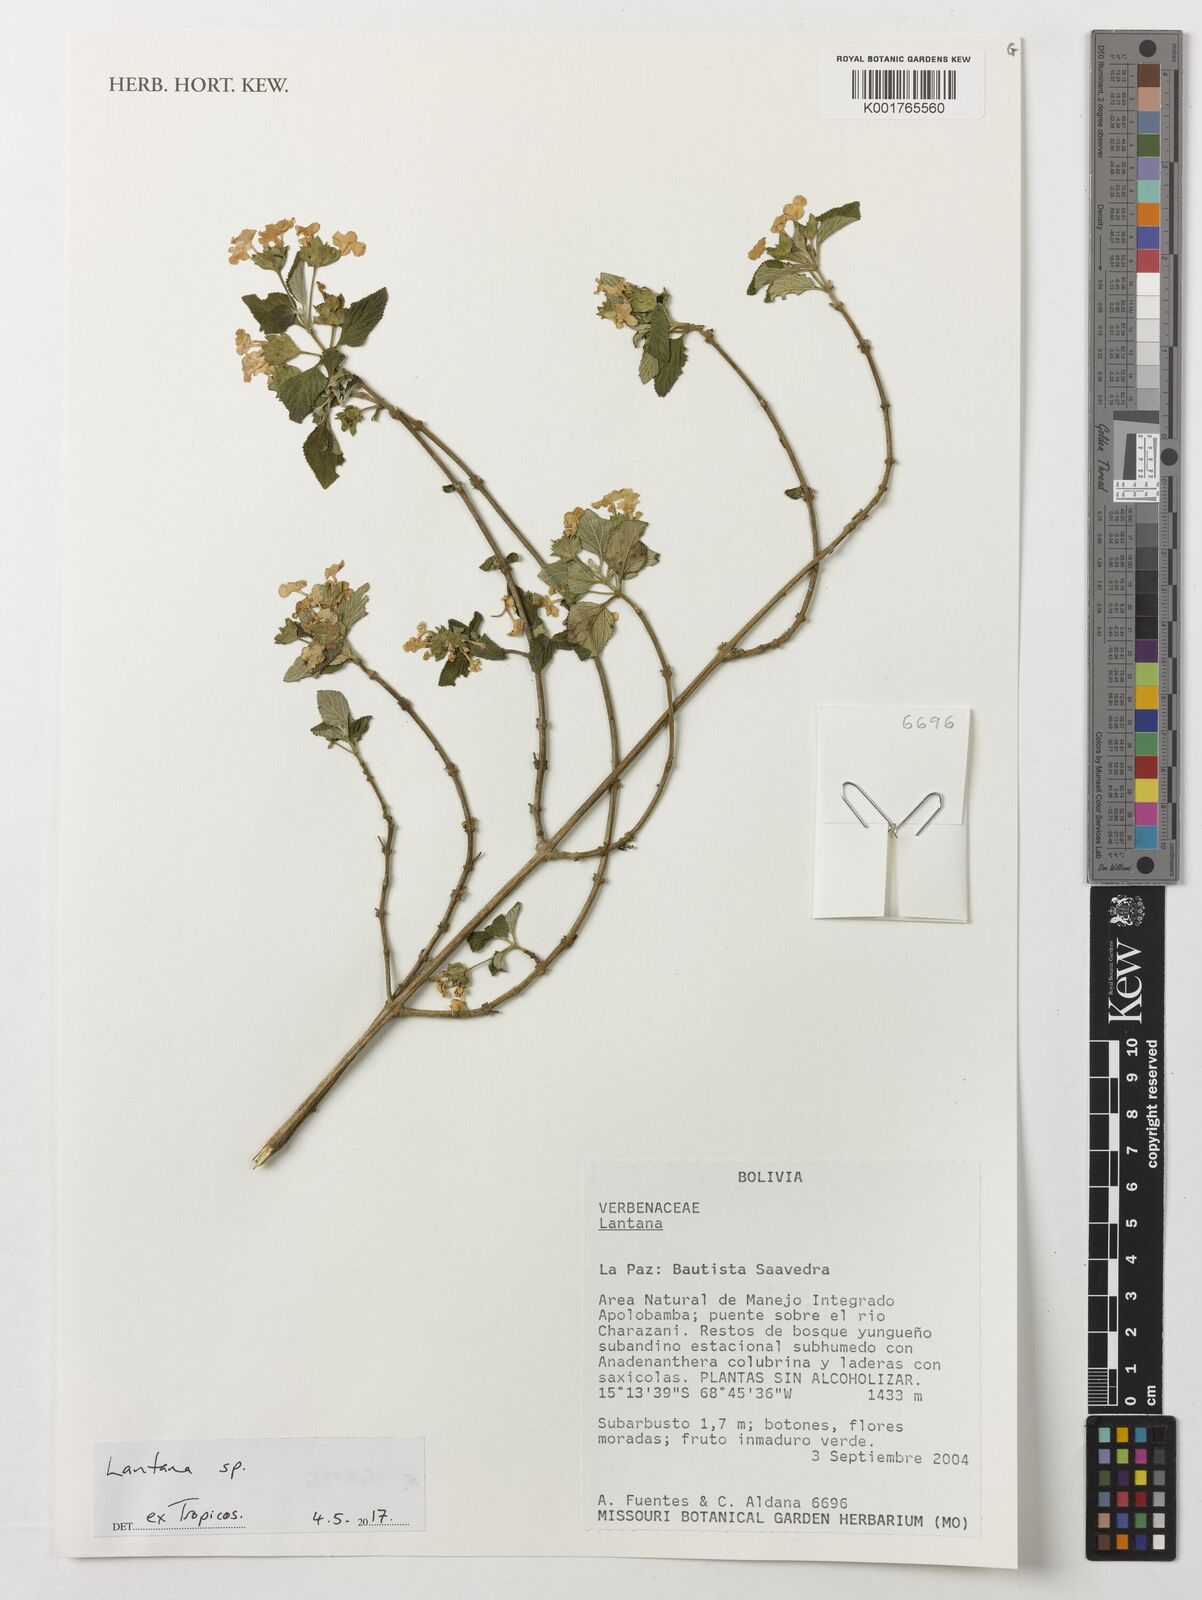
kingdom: Plantae
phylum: Tracheophyta
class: Magnoliopsida
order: Lamiales
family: Verbenaceae
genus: Lantana
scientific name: Lantana
